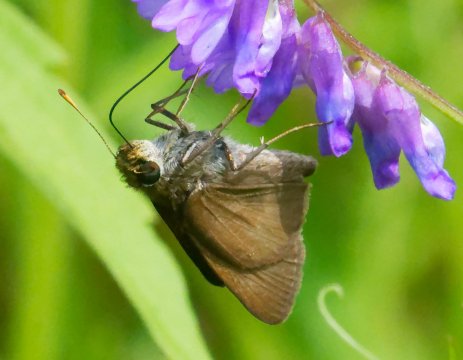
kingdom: Animalia
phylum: Arthropoda
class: Insecta
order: Lepidoptera
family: Hesperiidae
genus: Euphyes
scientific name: Euphyes vestris
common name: Dun Skipper
